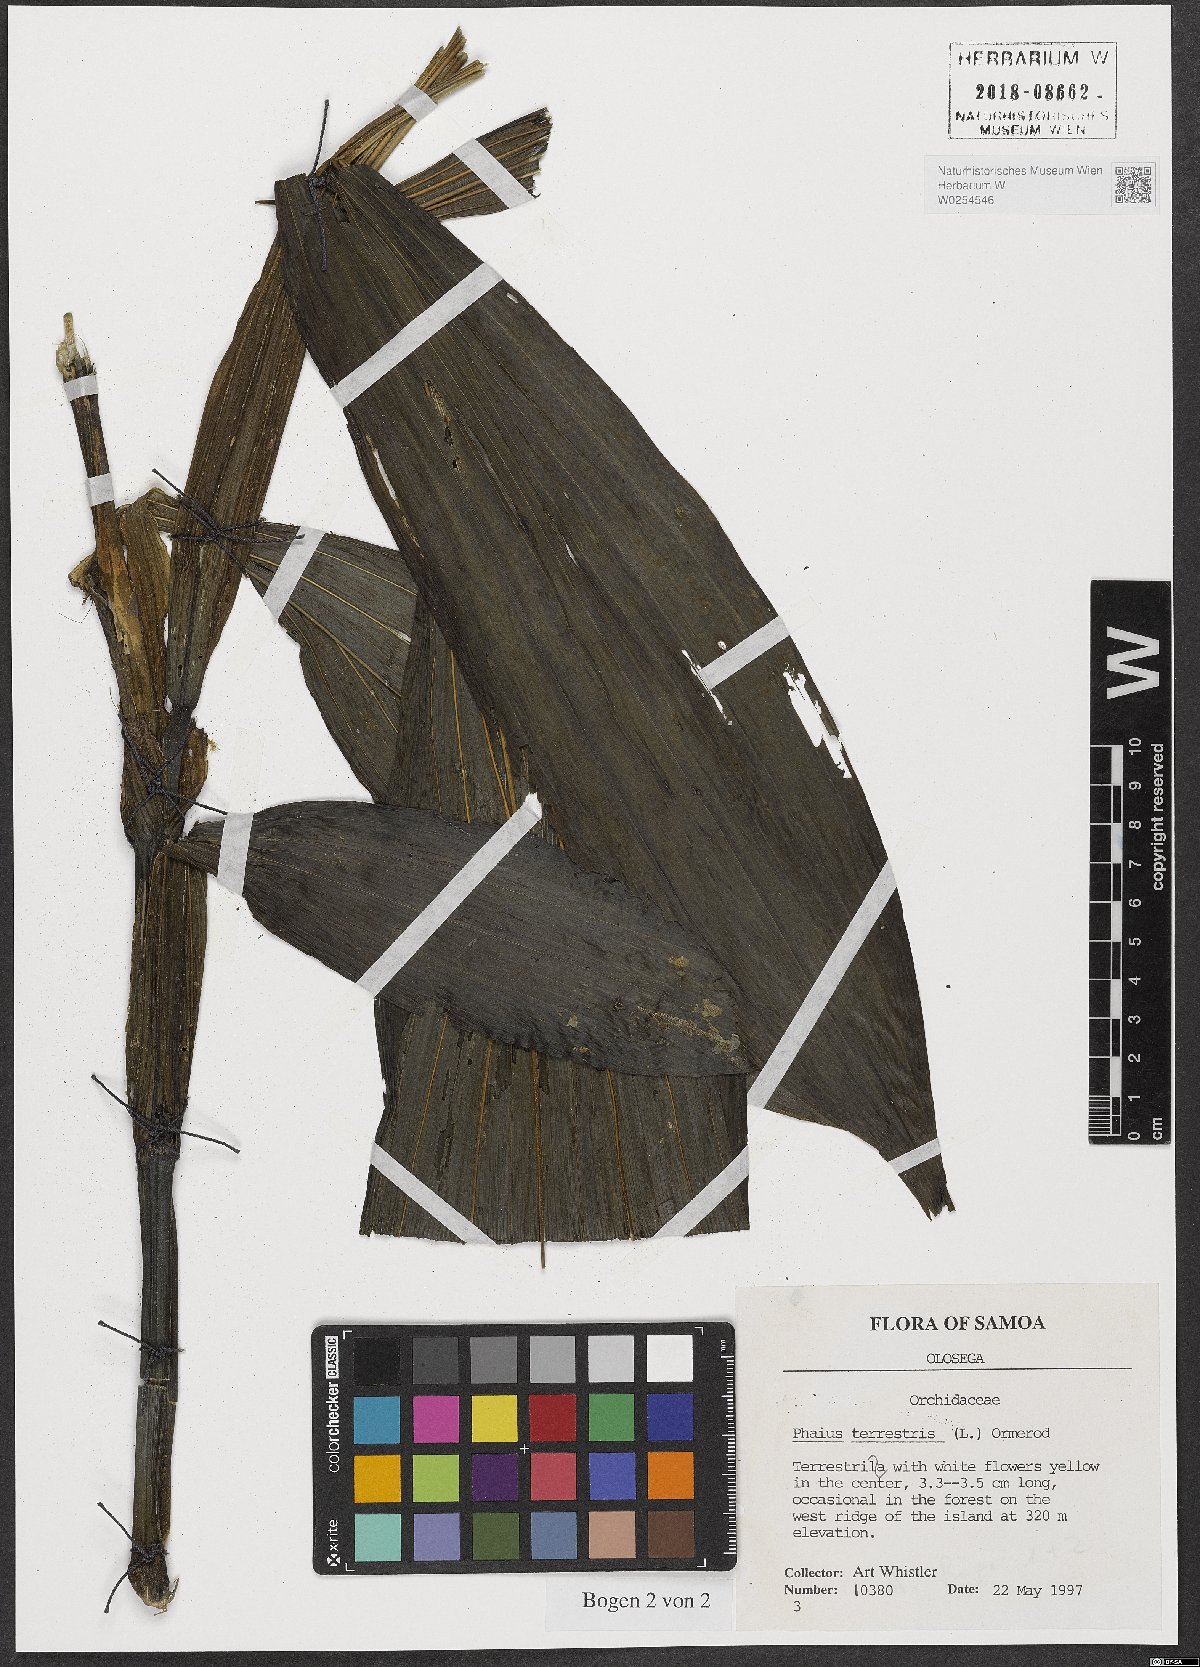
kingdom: Plantae
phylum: Tracheophyta
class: Liliopsida
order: Asparagales
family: Orchidaceae
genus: Eulophia
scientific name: Eulophia terrestris
